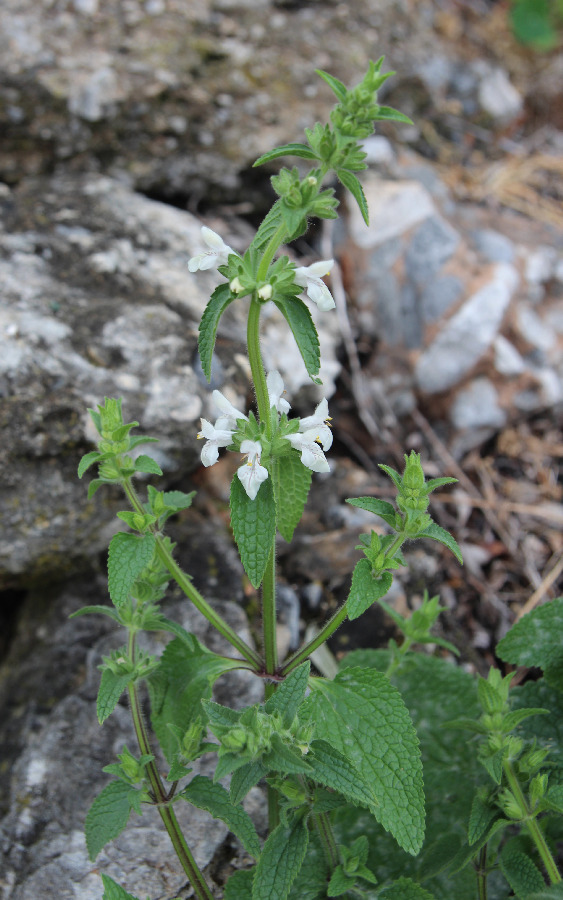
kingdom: Plantae
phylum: Tracheophyta
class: Magnoliopsida
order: Lamiales
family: Lamiaceae
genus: Stachys
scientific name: Stachys spinulosa
